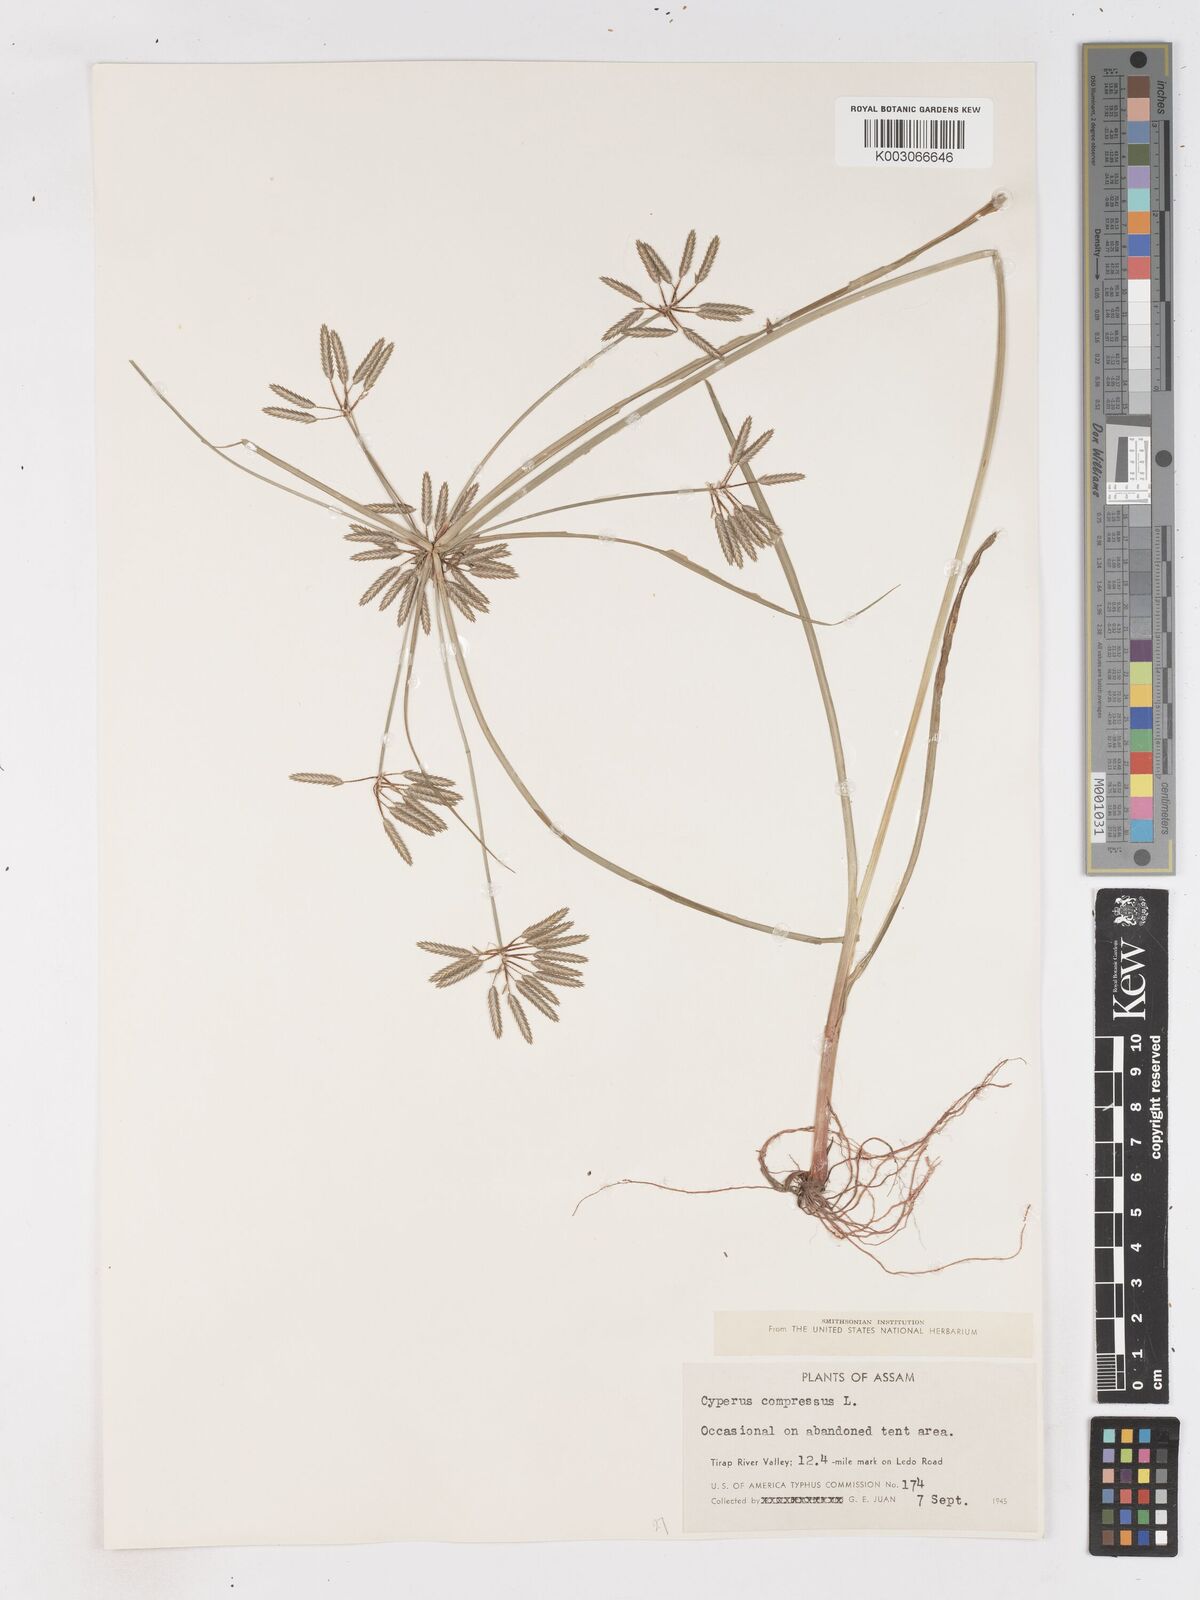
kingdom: Plantae
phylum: Tracheophyta
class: Liliopsida
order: Poales
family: Cyperaceae
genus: Cyperus
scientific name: Cyperus compressus
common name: Poorland flatsedge
